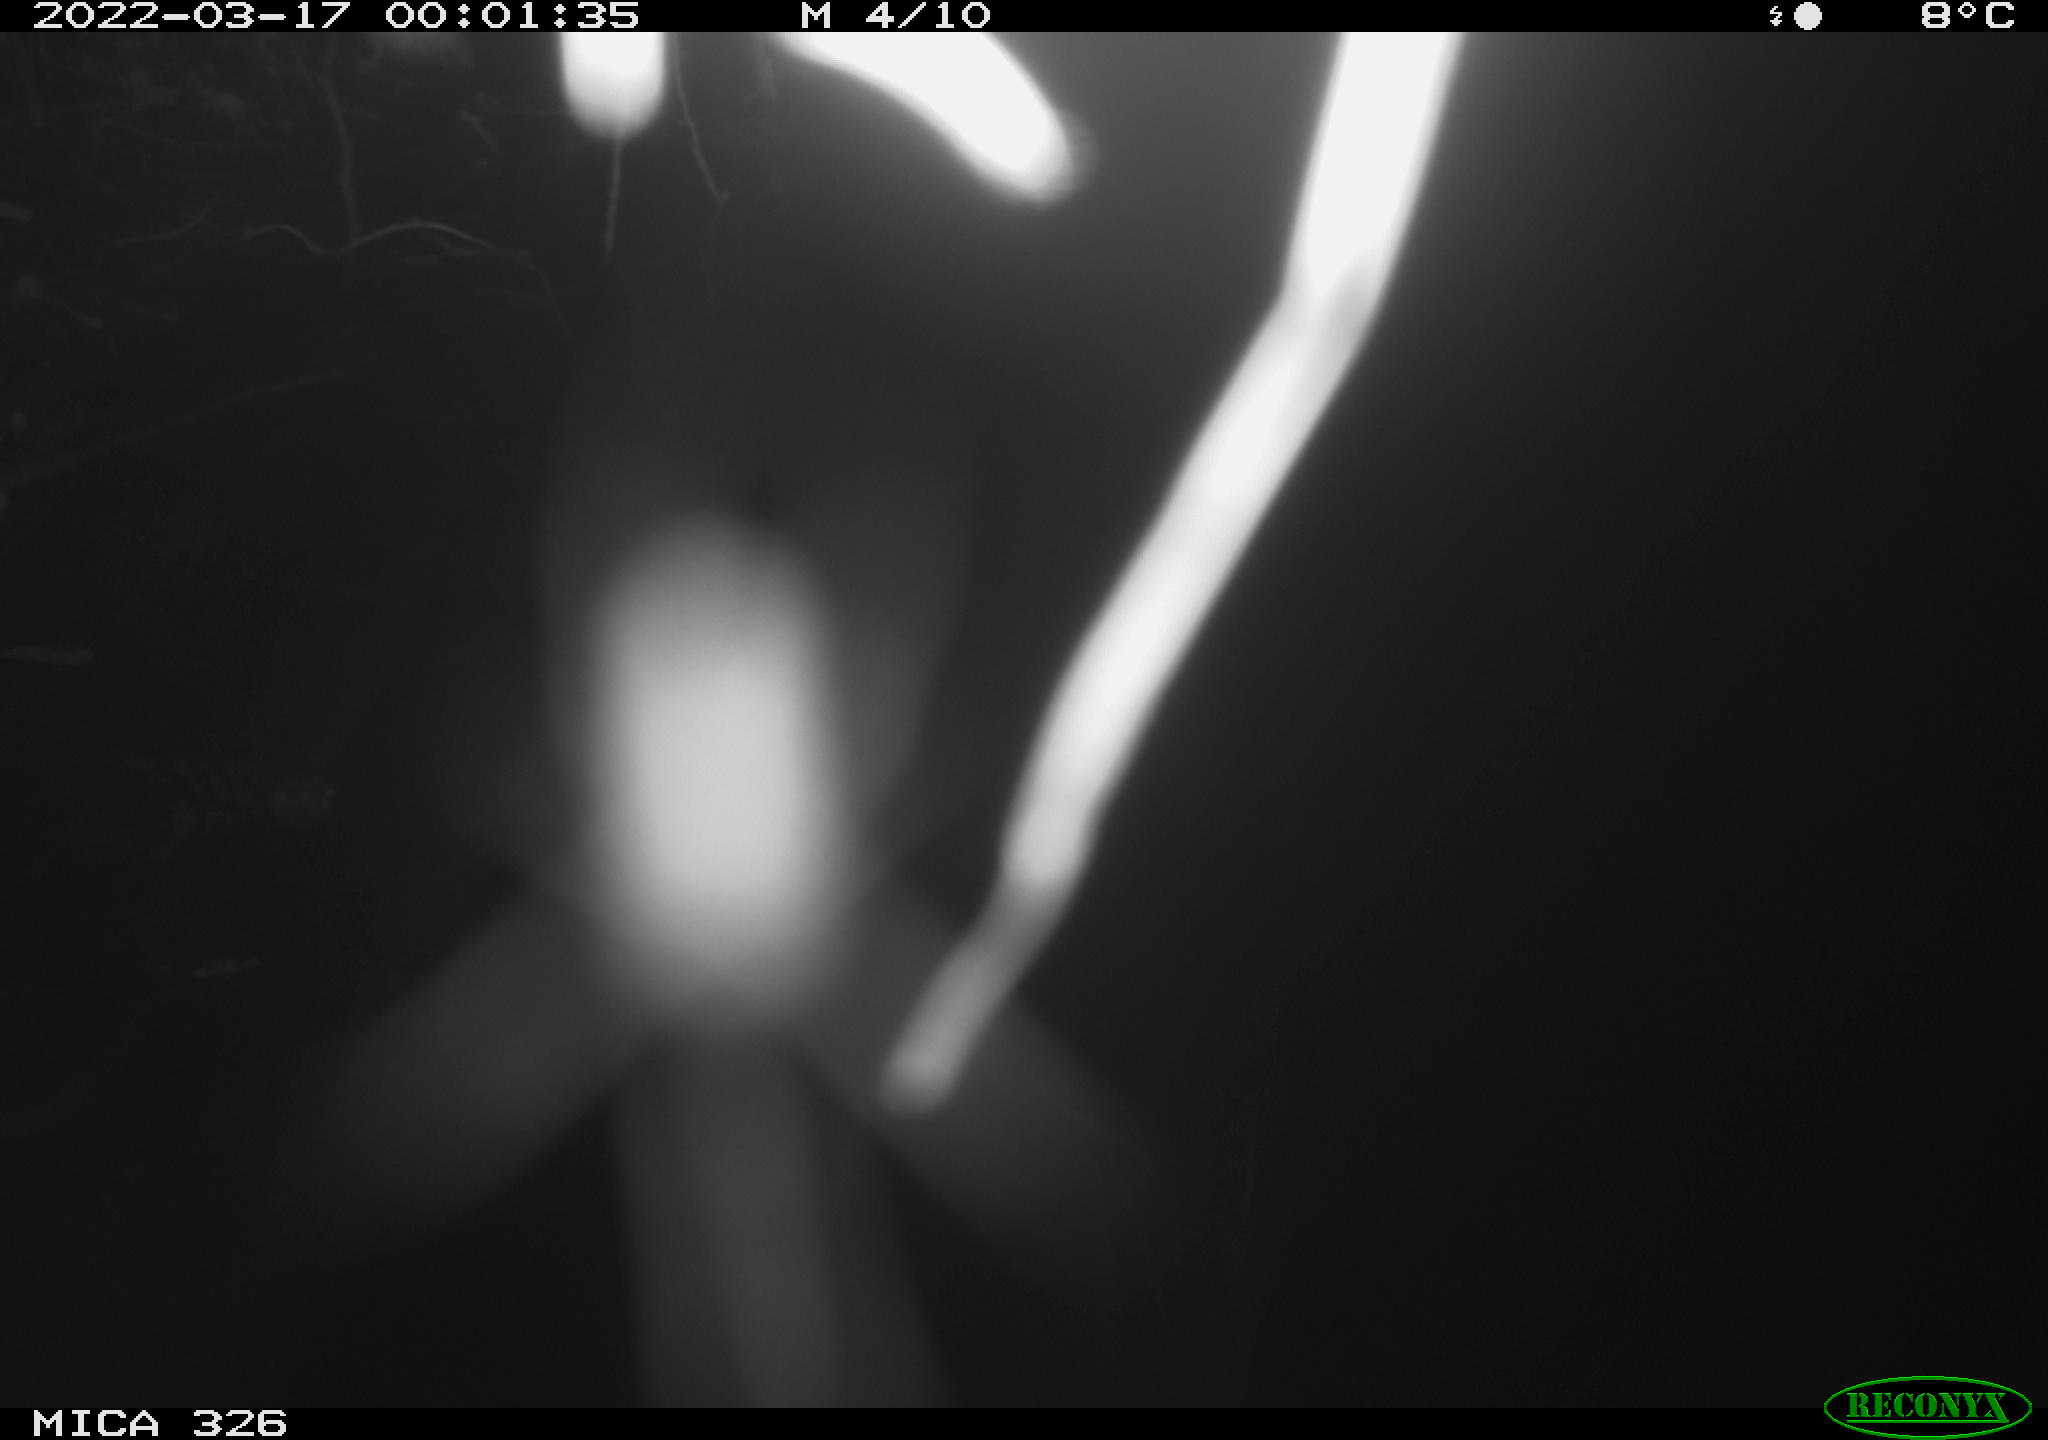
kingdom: Animalia
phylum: Chordata
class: Mammalia
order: Rodentia
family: Muridae
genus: Rattus
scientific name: Rattus norvegicus
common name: Brown rat
